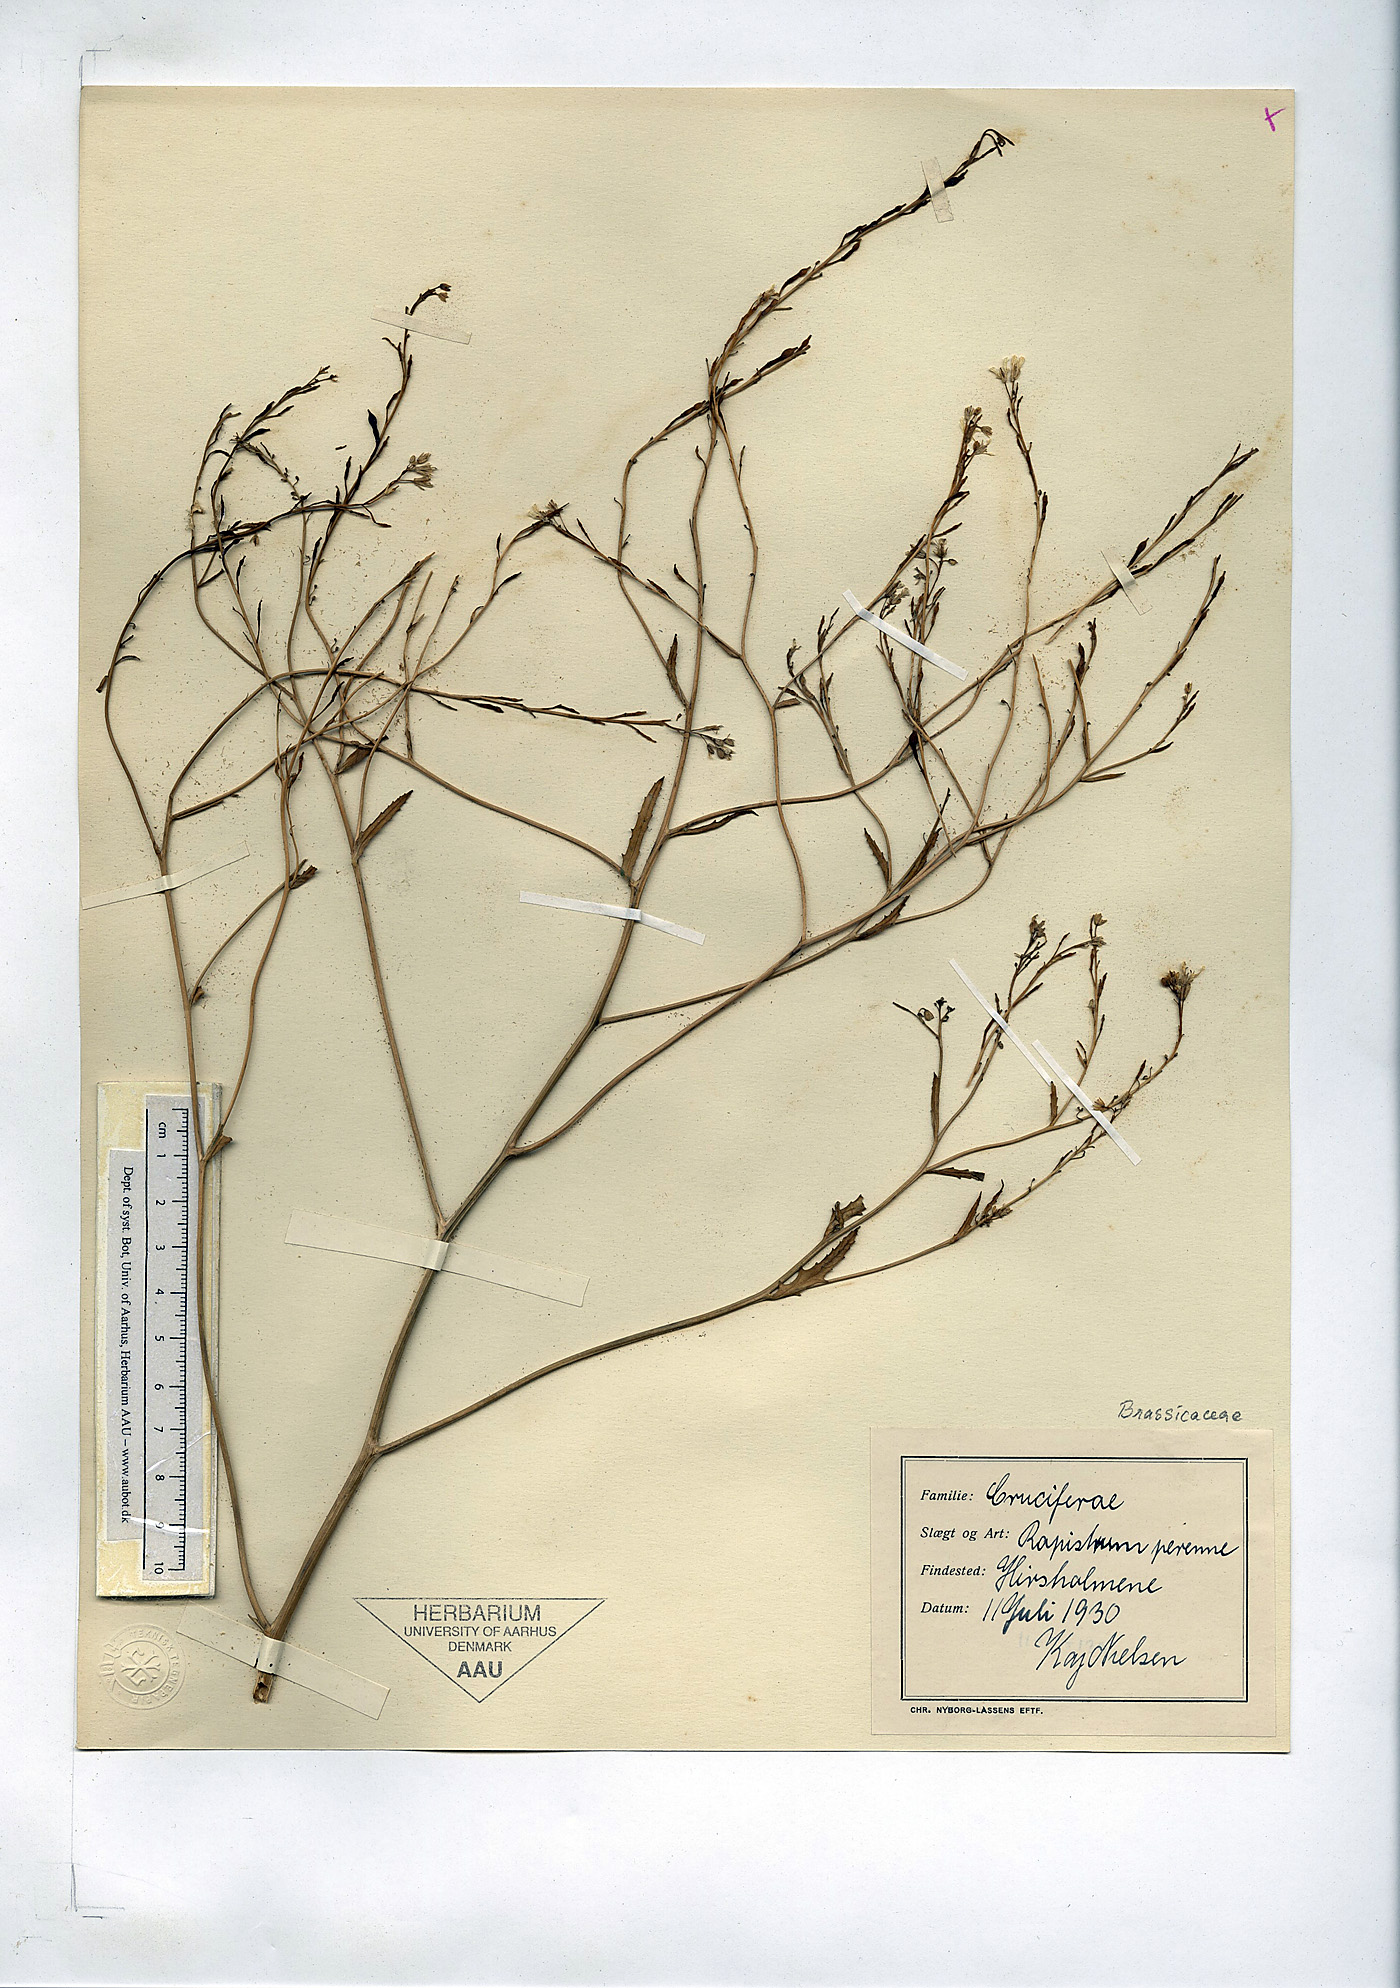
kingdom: Plantae
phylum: Tracheophyta
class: Magnoliopsida
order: Brassicales
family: Brassicaceae
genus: Rapistrum
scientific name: Rapistrum perenne
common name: Steppe cabbage
